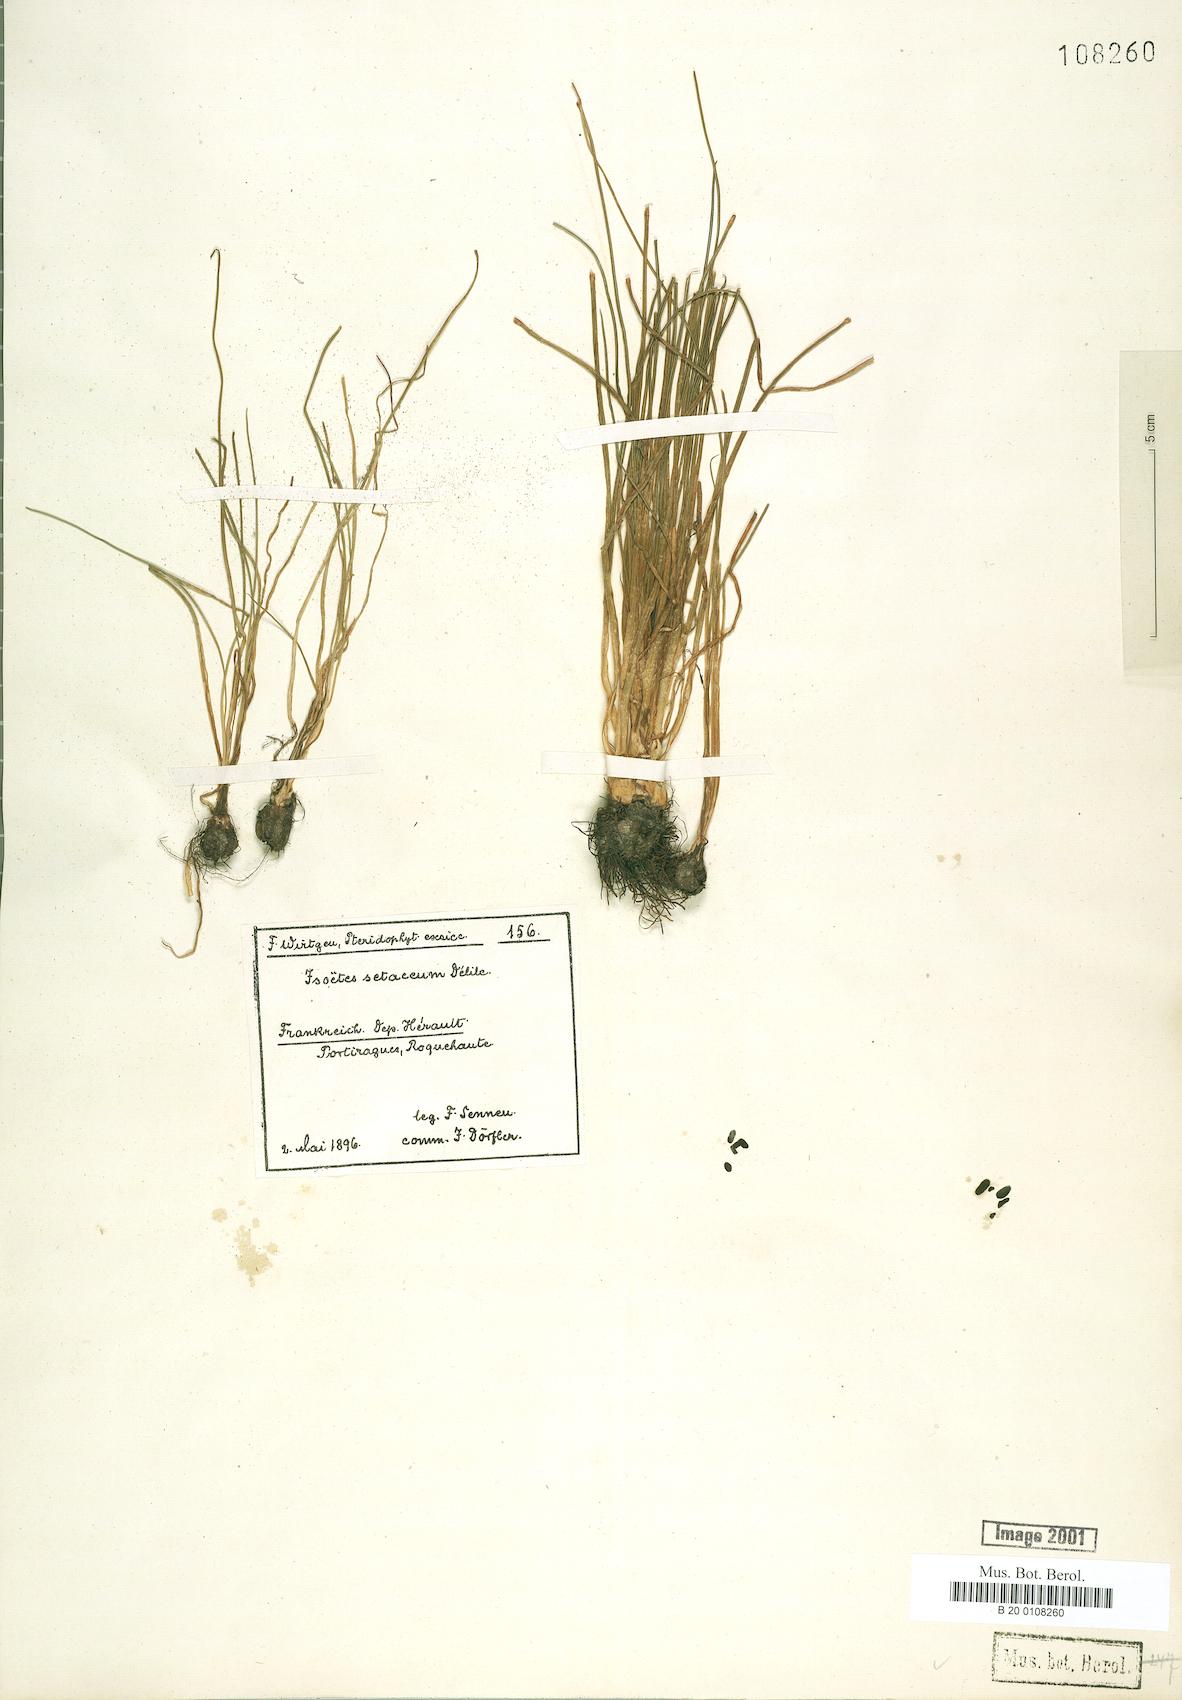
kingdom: Plantae
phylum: Tracheophyta
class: Lycopodiopsida
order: Isoetales
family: Isoetaceae
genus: Isoetes
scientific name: Isoetes lacustris
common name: Common quillwort
